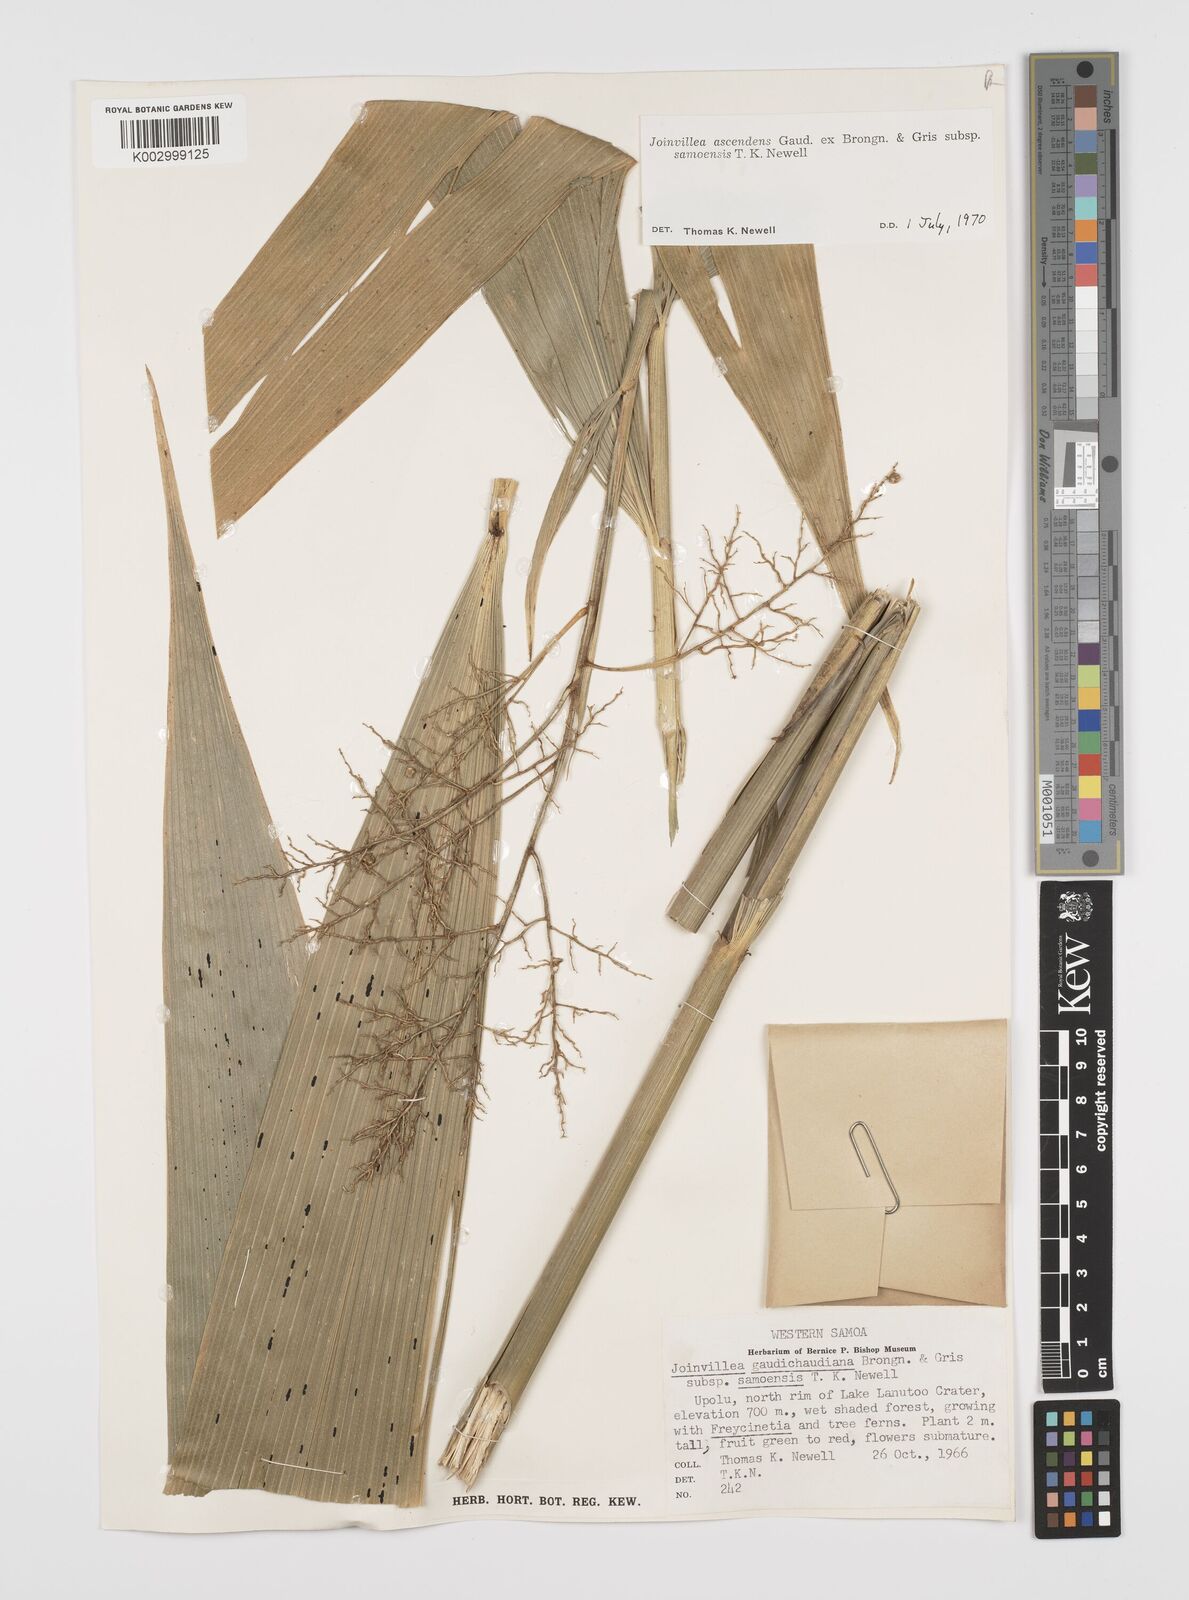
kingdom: Plantae
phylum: Tracheophyta
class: Liliopsida
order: Poales
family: Joinvilleaceae
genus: Joinvillea
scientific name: Joinvillea bryanii
